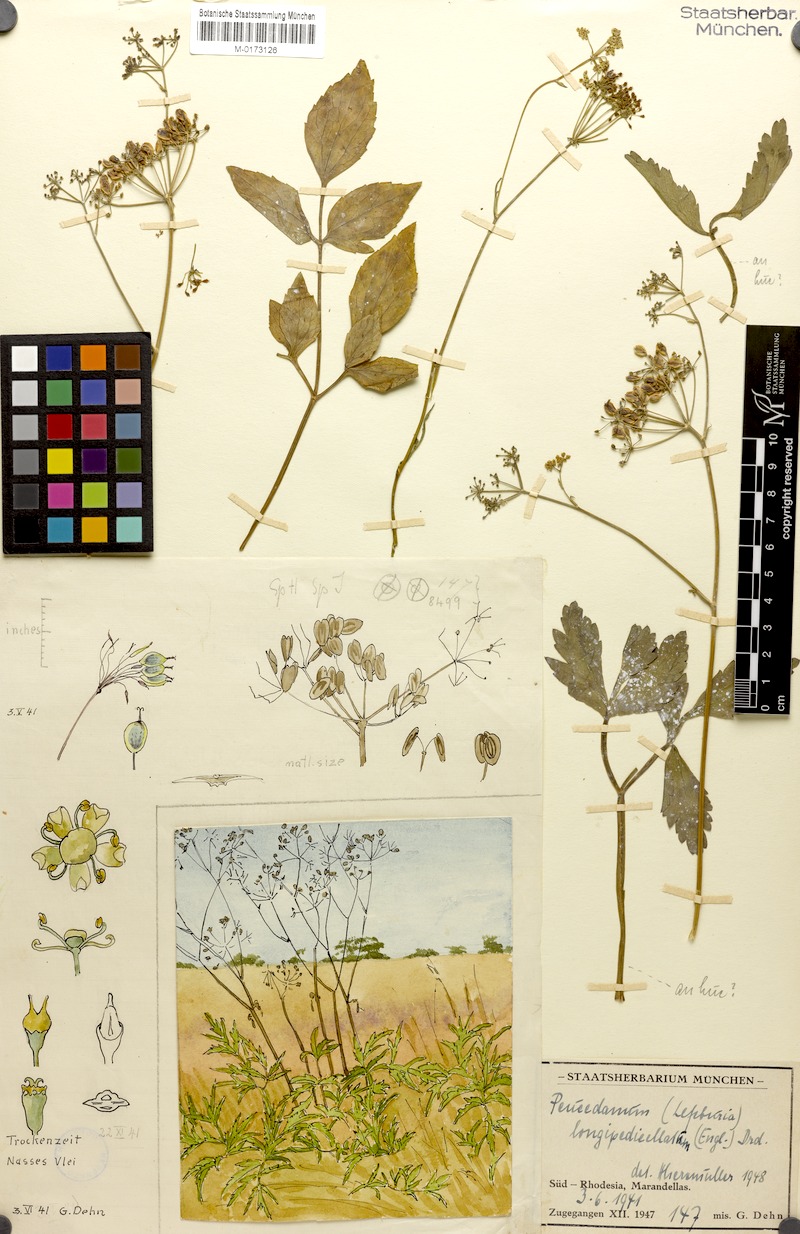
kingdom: Plantae
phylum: Tracheophyta
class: Magnoliopsida
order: Apiales
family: Apiaceae
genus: Lefebvrea
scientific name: Lefebvrea longipedicellata
